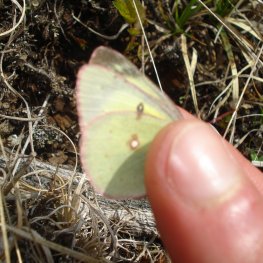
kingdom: Animalia
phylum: Arthropoda
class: Insecta
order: Lepidoptera
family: Pieridae
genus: Colias
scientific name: Colias philodice
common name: Clouded Sulphur
